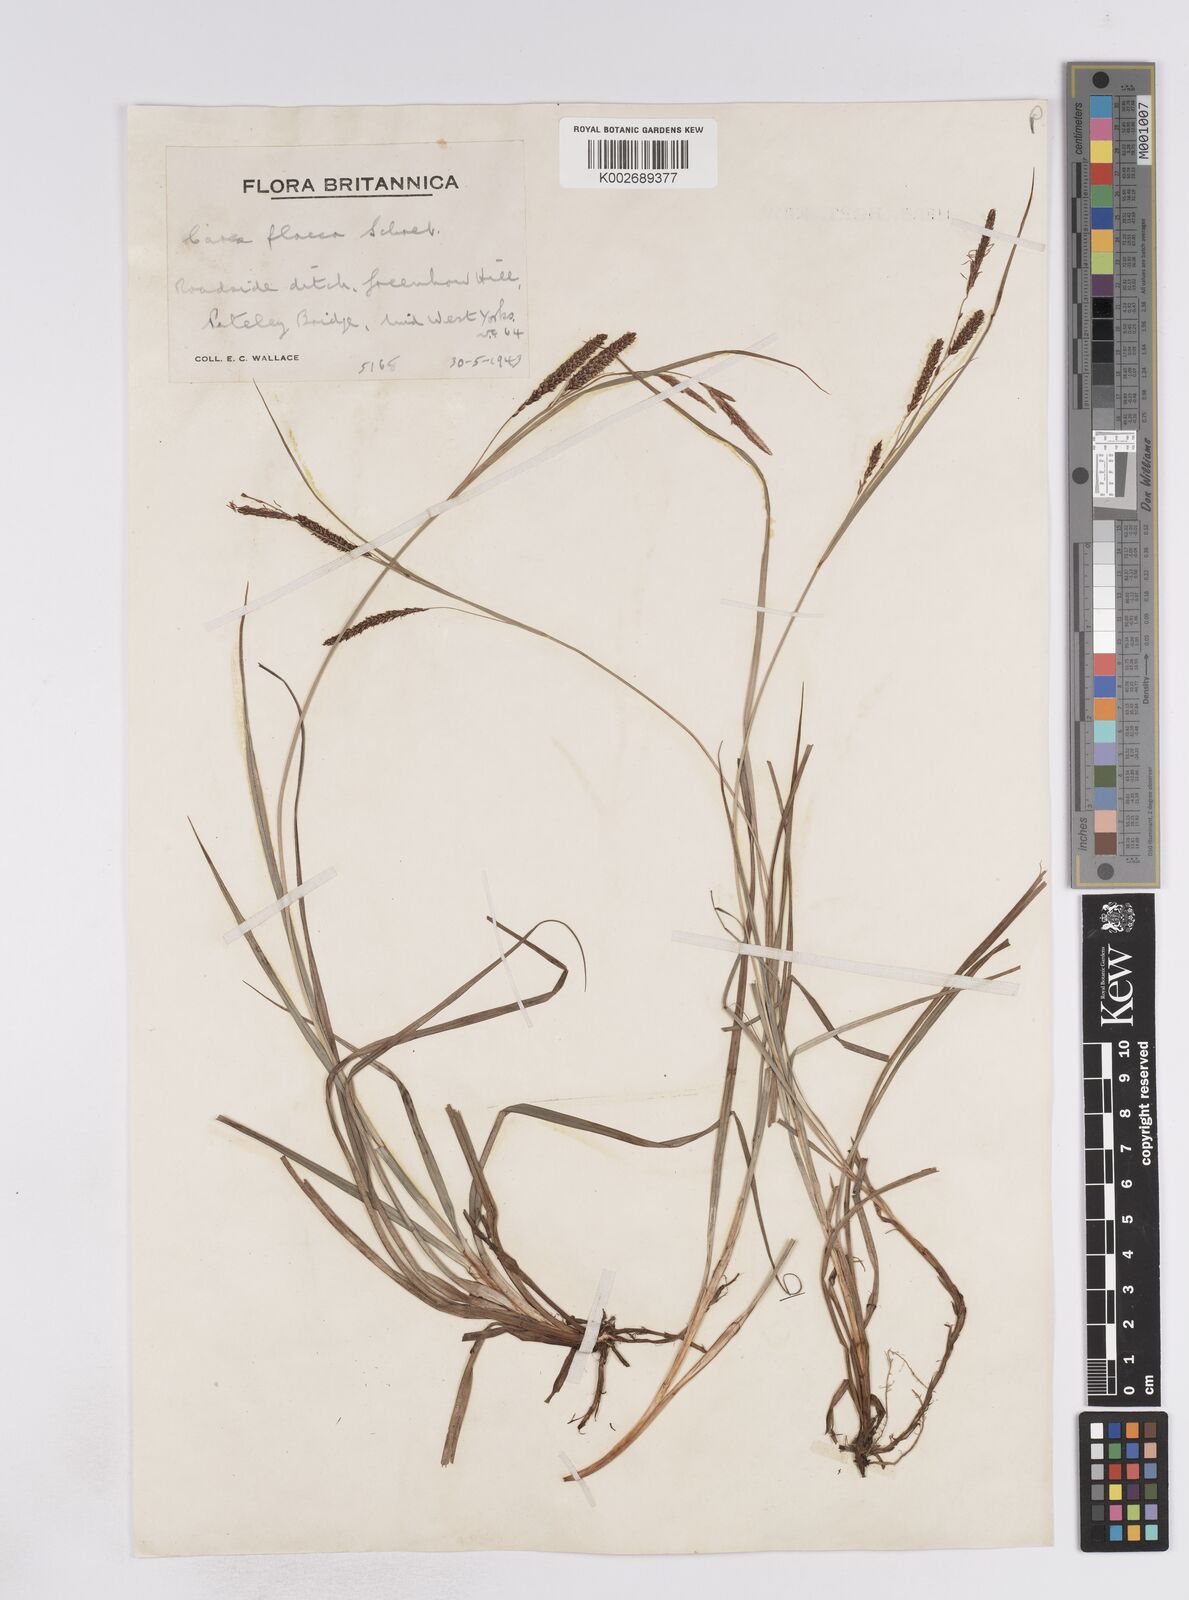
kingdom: Plantae
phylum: Tracheophyta
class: Liliopsida
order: Poales
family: Cyperaceae
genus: Carex
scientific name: Carex flacca
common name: Glaucous sedge
